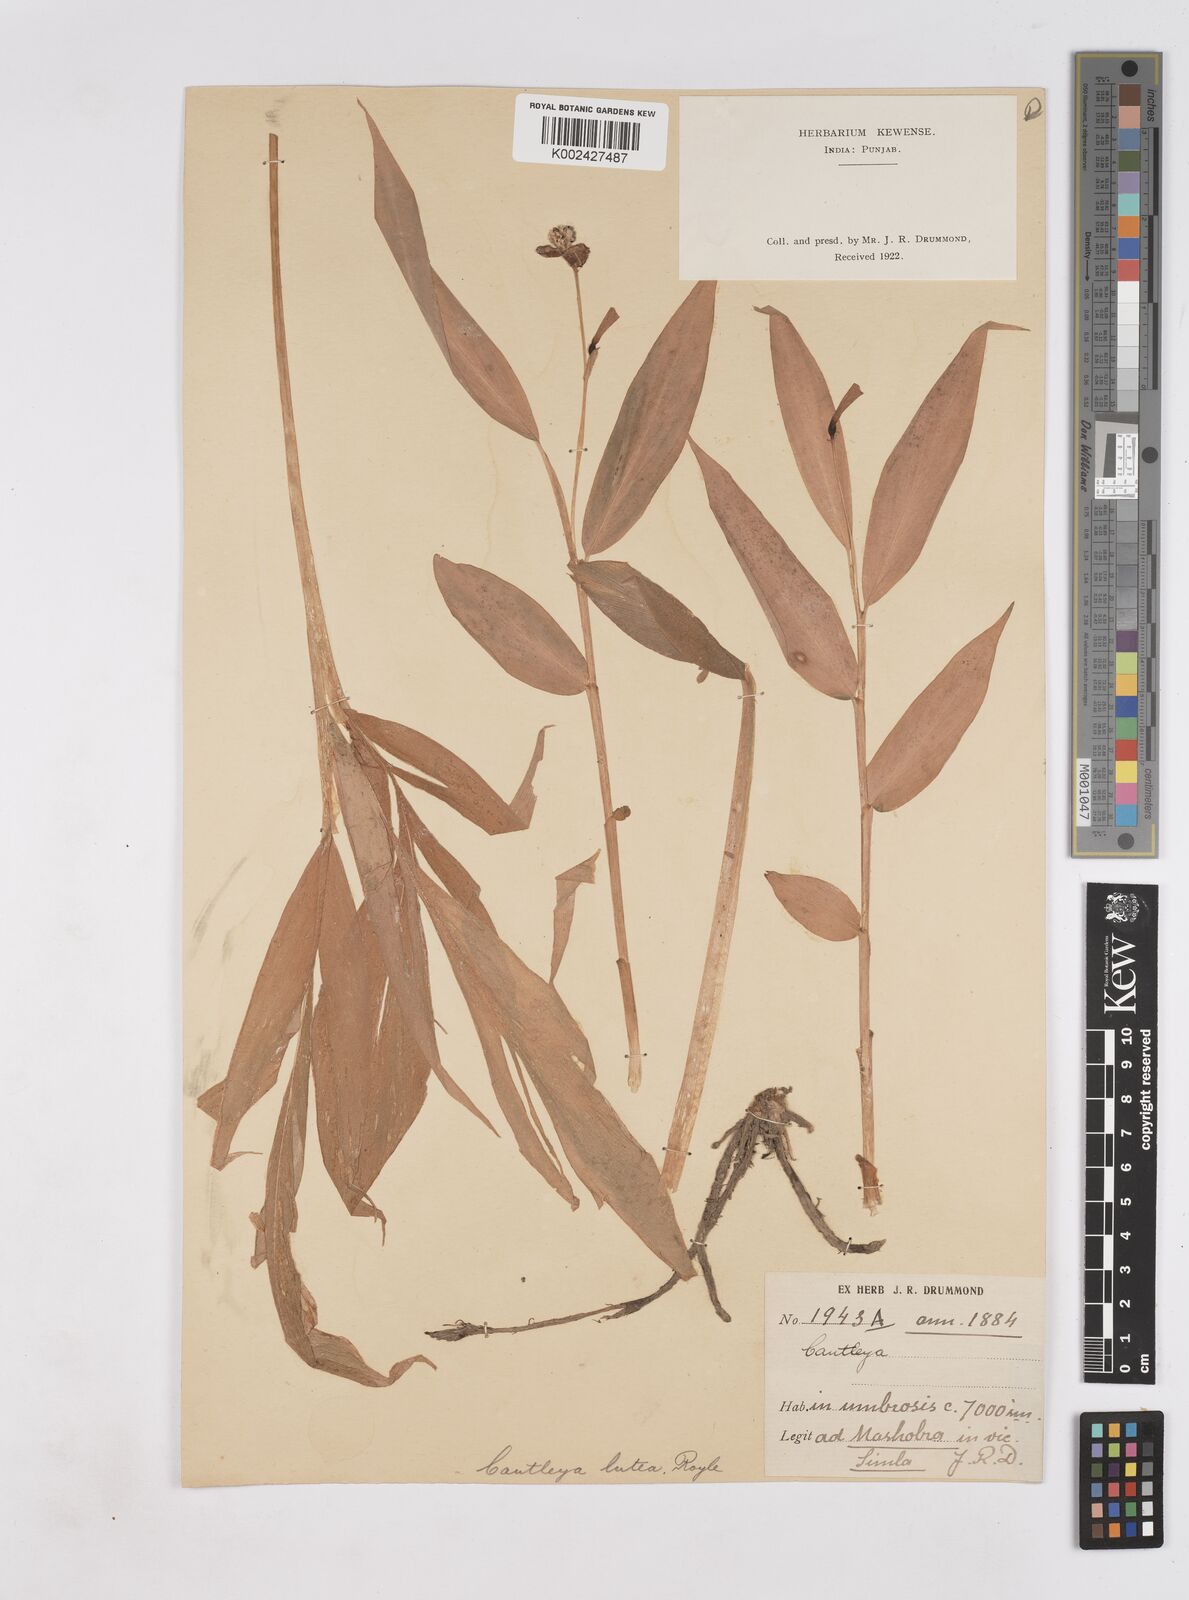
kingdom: Plantae
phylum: Tracheophyta
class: Liliopsida
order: Zingiberales
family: Zingiberaceae
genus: Cautleya
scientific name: Cautleya gracilis
